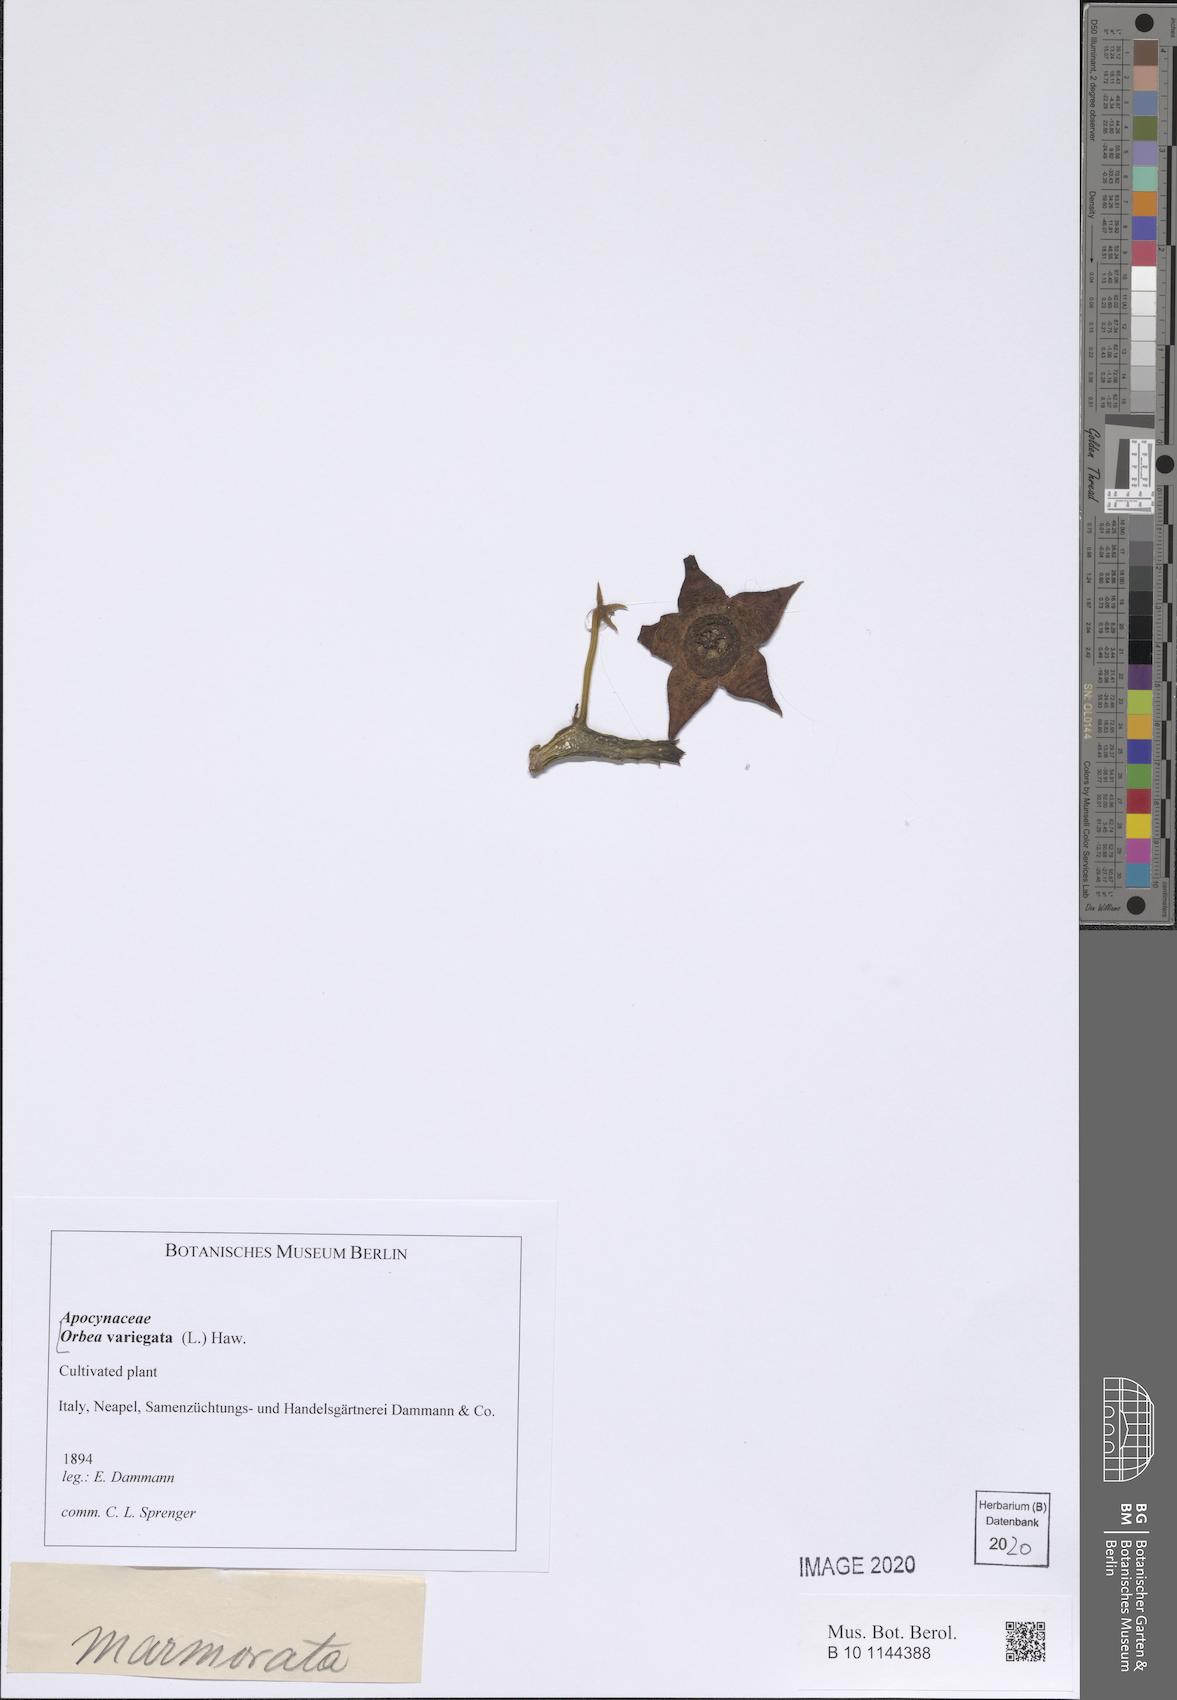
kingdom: Plantae
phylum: Tracheophyta
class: Magnoliopsida
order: Gentianales
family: Apocynaceae
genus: Ceropegia
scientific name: Ceropegia mixta
